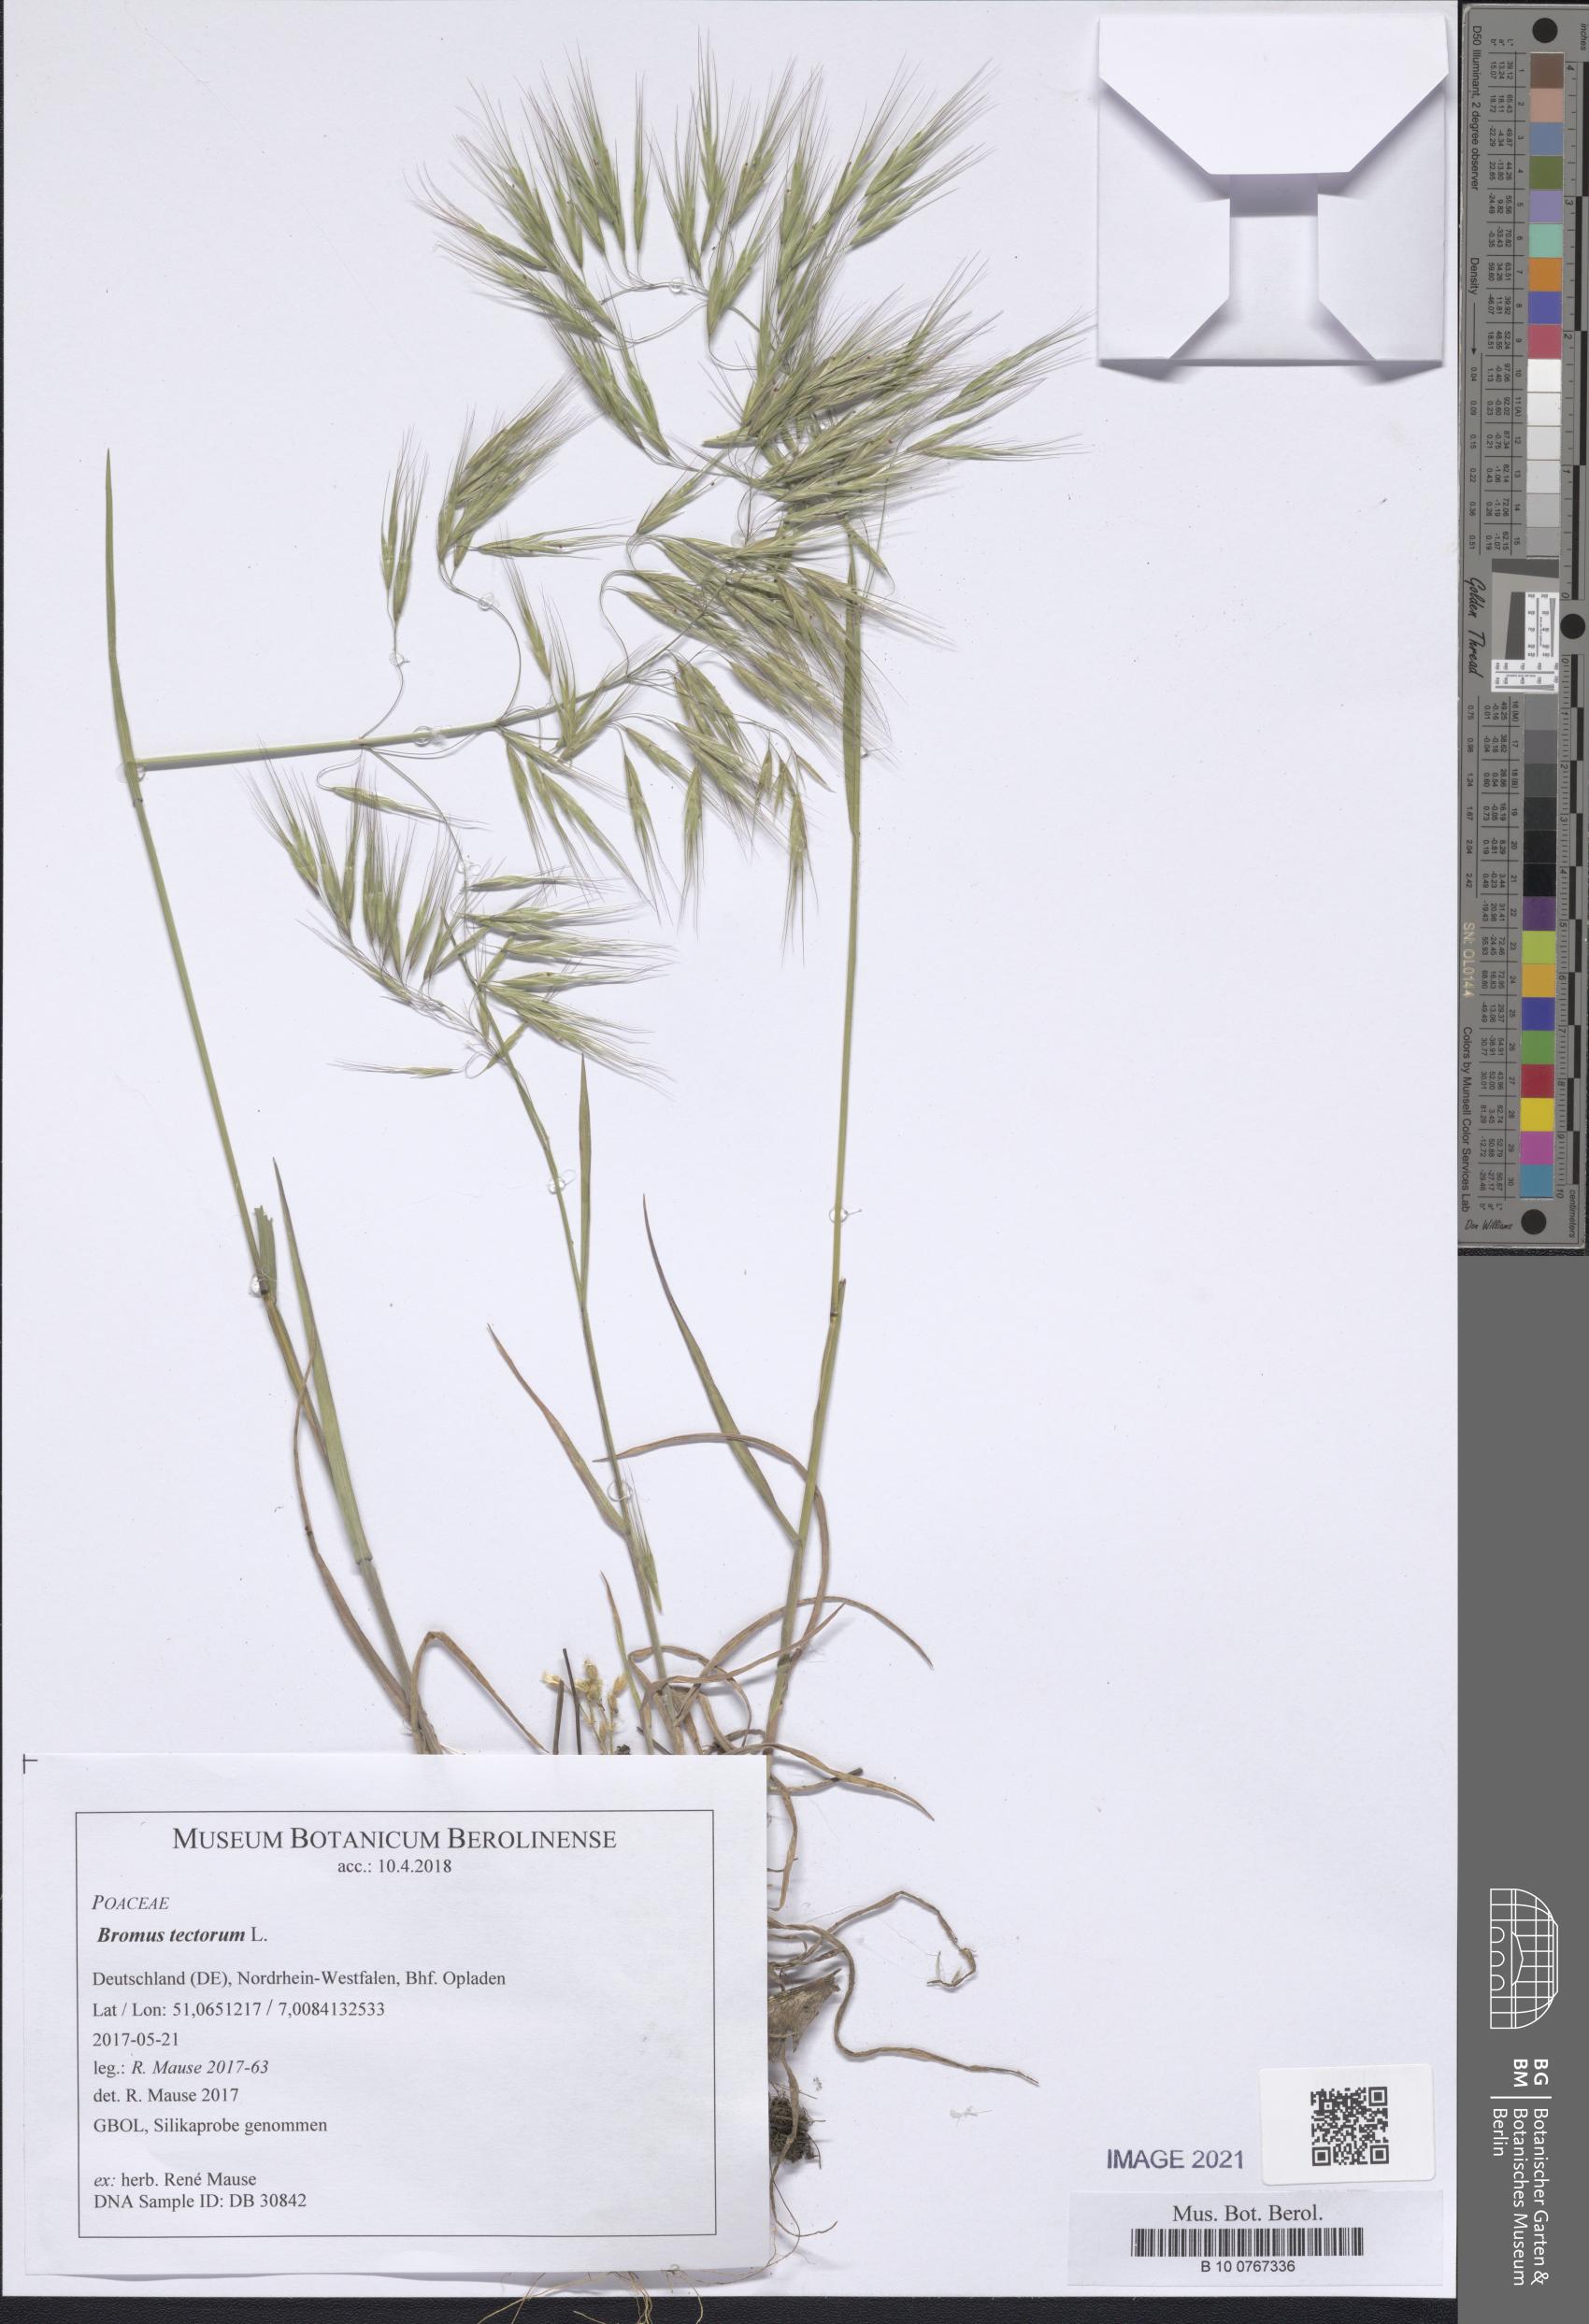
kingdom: Plantae
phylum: Tracheophyta
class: Liliopsida
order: Poales
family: Poaceae
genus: Bromus
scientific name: Bromus tectorum
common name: Cheatgrass
